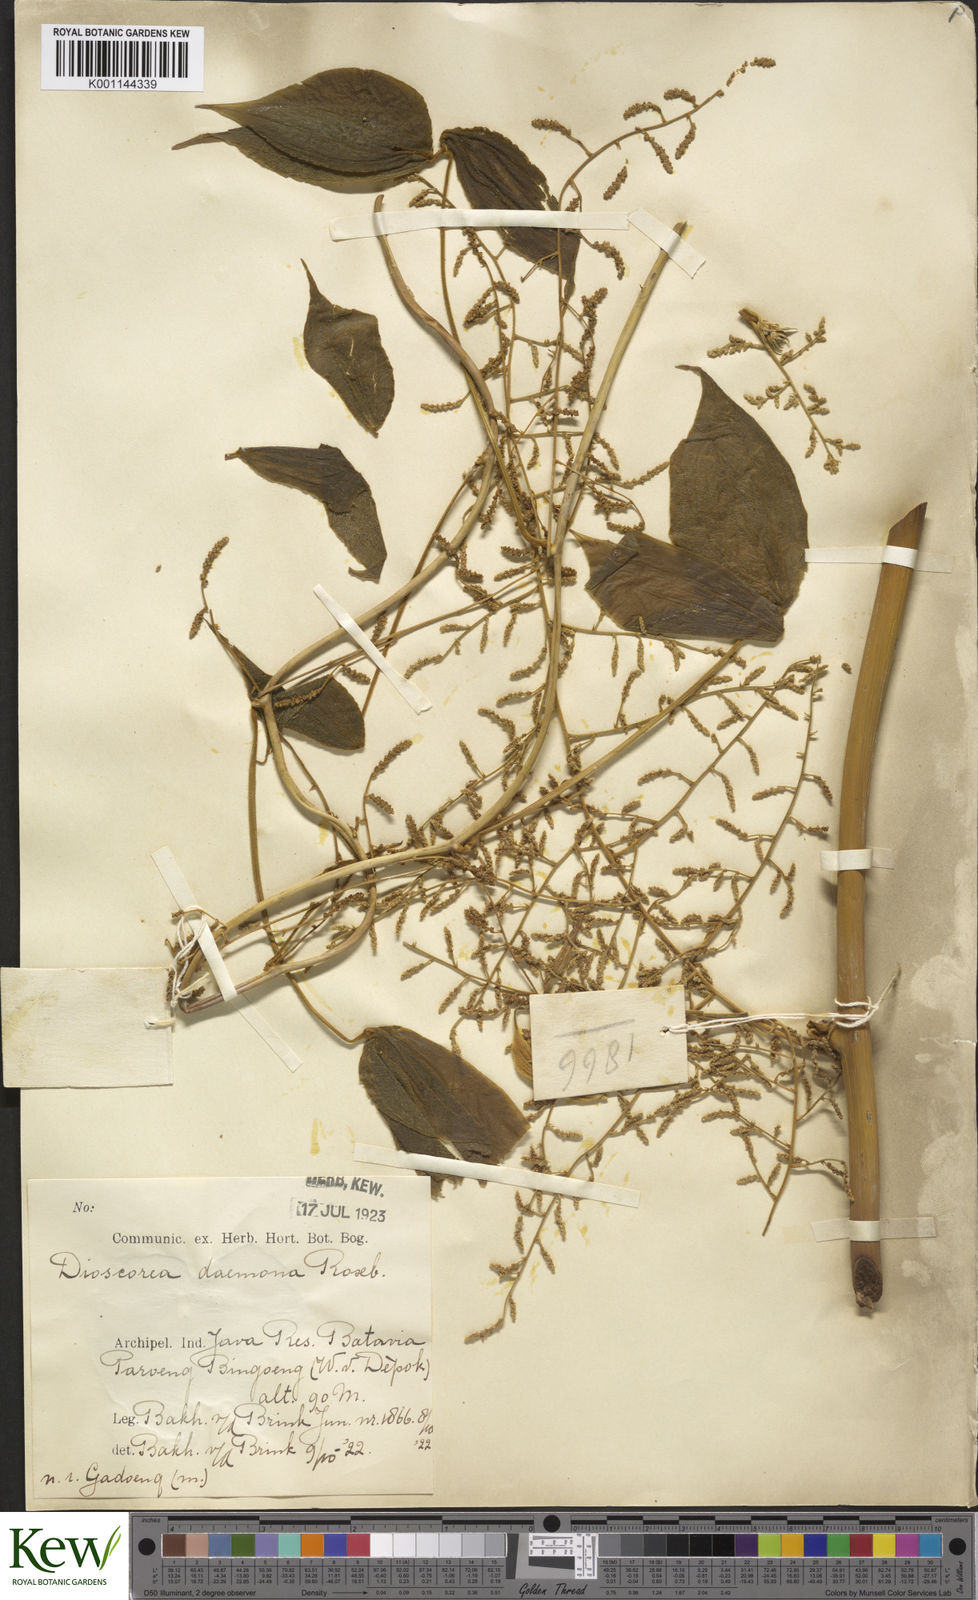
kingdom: Plantae
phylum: Tracheophyta
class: Liliopsida
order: Dioscoreales
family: Dioscoreaceae
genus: Dioscorea
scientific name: Dioscorea hispida
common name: Asiatic bitter yam
